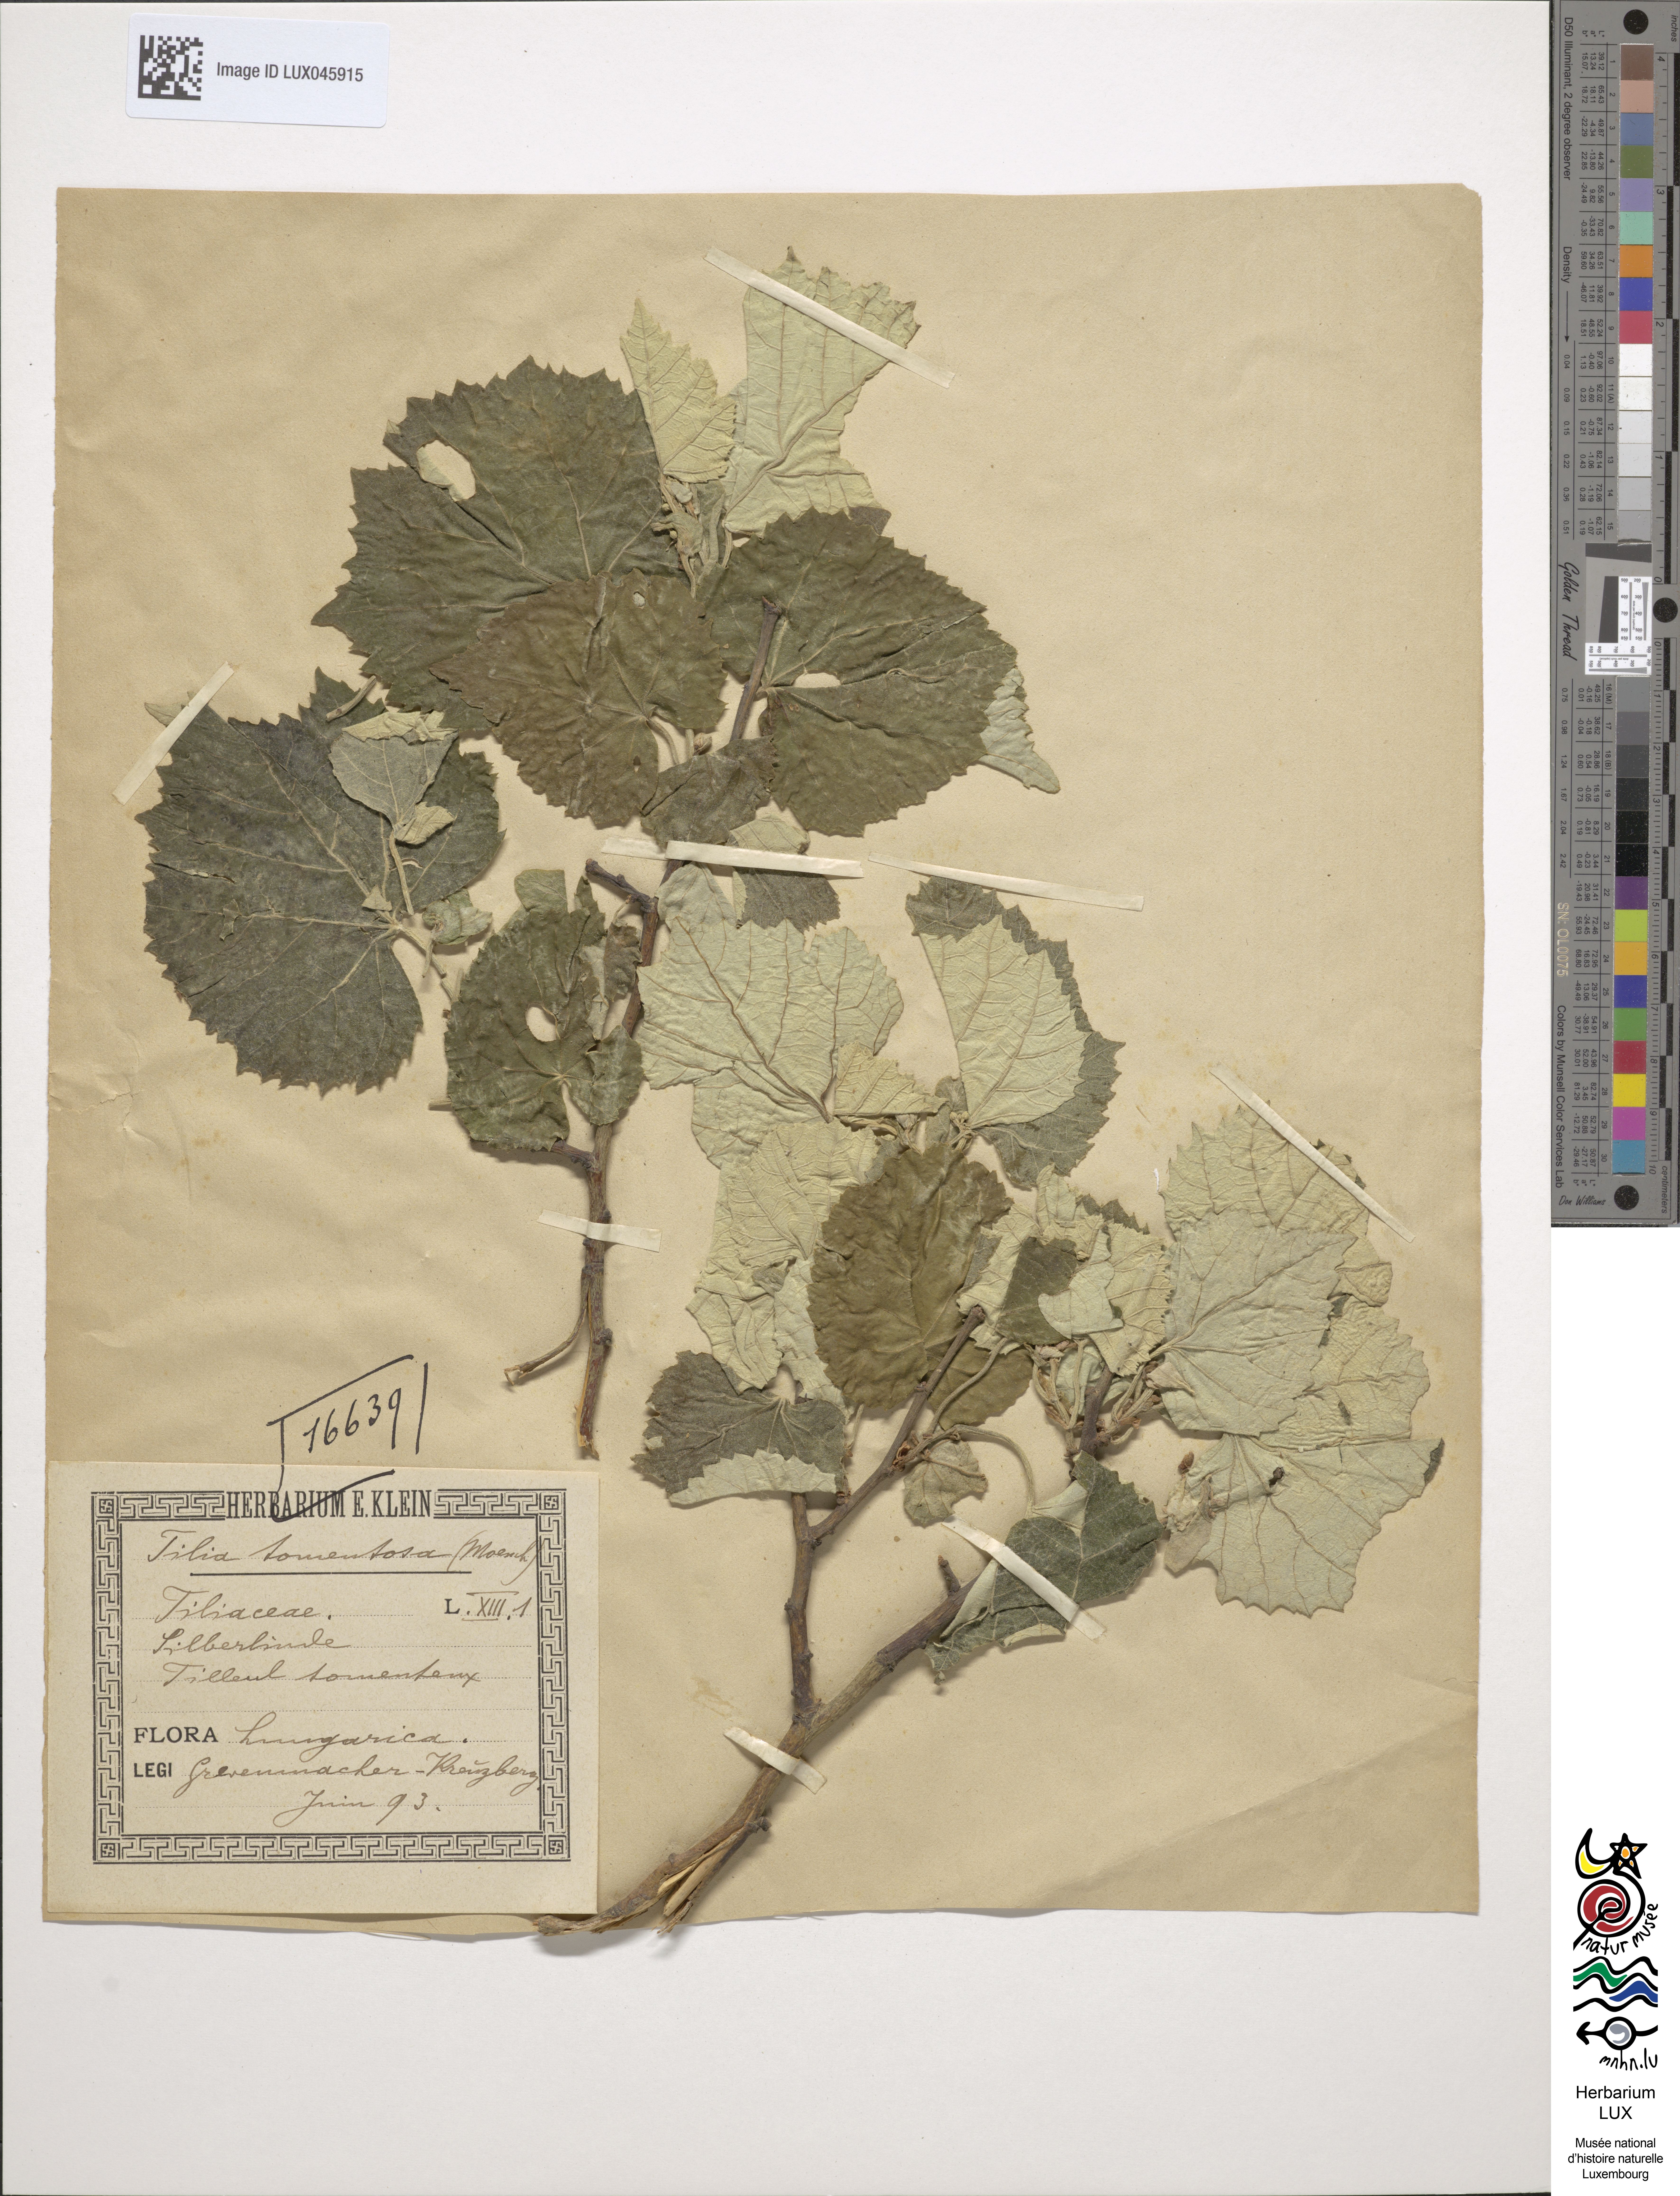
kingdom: Plantae
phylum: Tracheophyta
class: Magnoliopsida
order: Malvales
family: Malvaceae
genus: Tilia
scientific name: Tilia tomentosa
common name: Silver lime
